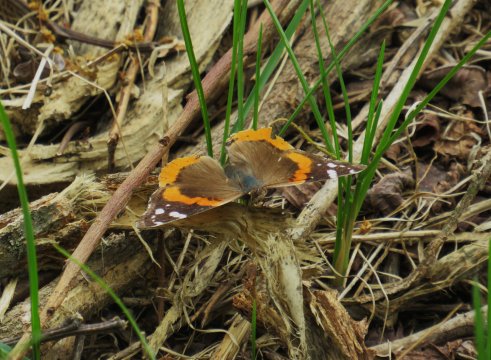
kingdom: Animalia
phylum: Arthropoda
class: Insecta
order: Lepidoptera
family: Nymphalidae
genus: Vanessa
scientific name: Vanessa atalanta
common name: Red Admiral
